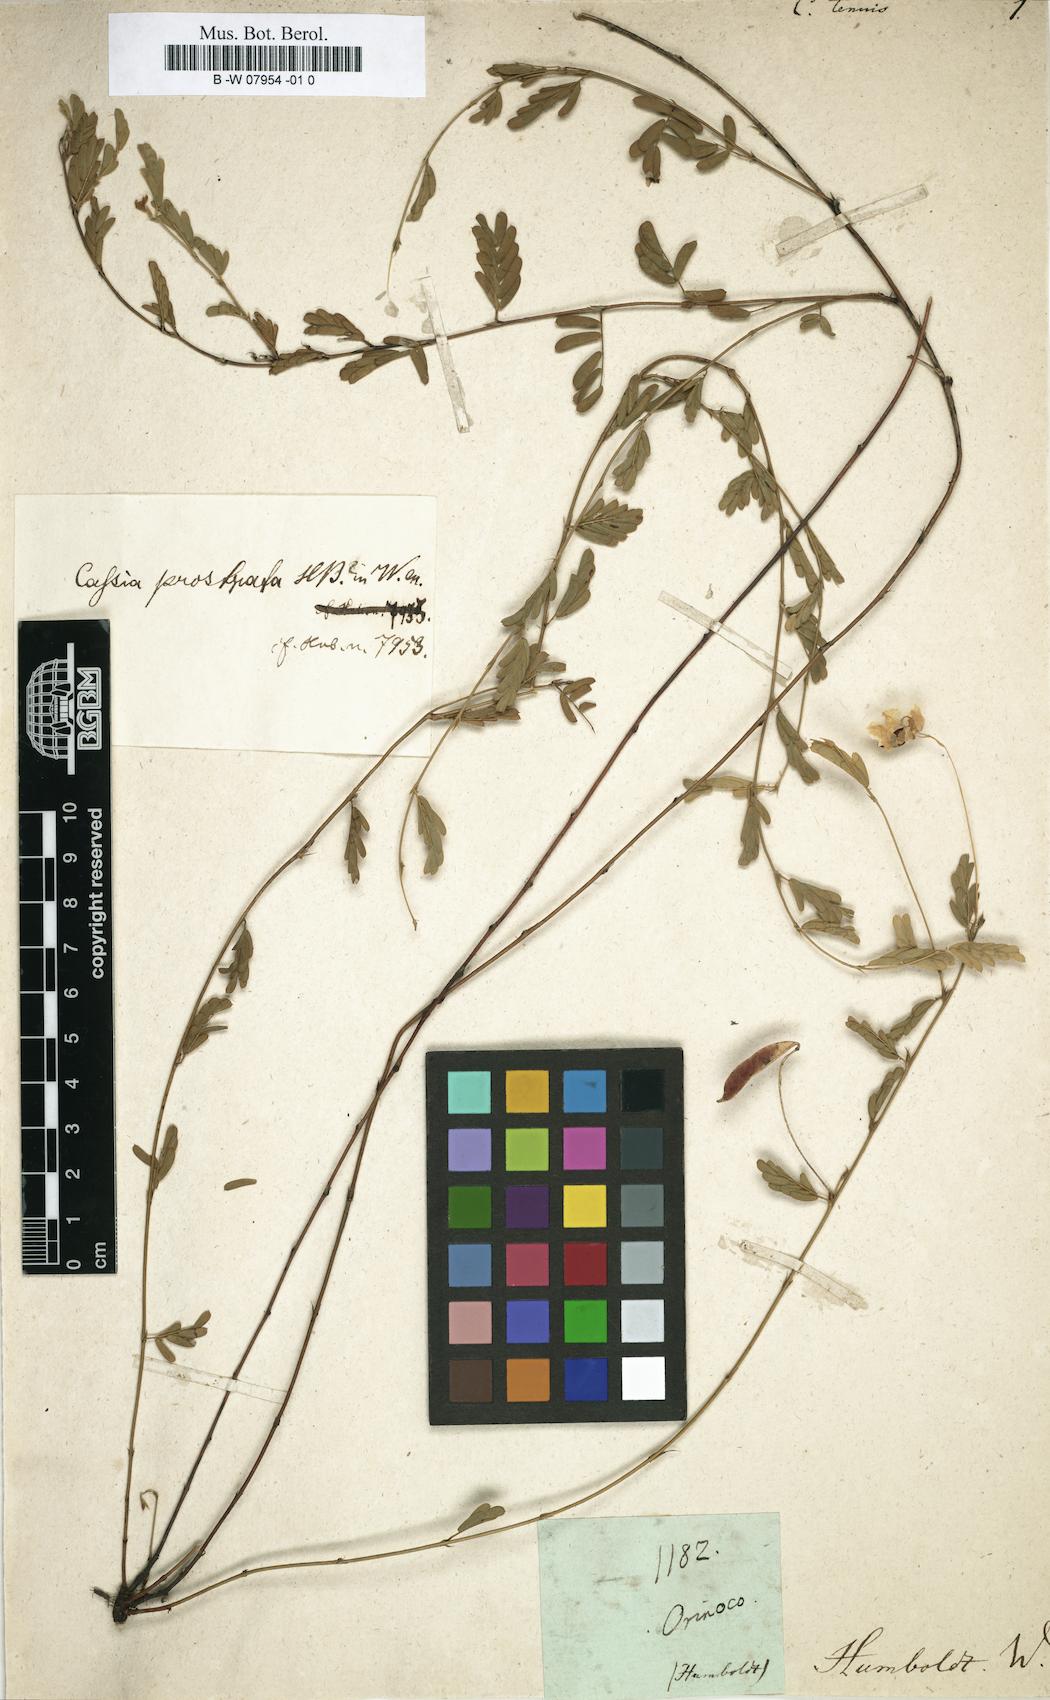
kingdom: Plantae
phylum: Tracheophyta
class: Magnoliopsida
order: Fabales
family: Fabaceae
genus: Cassia
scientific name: Cassia
